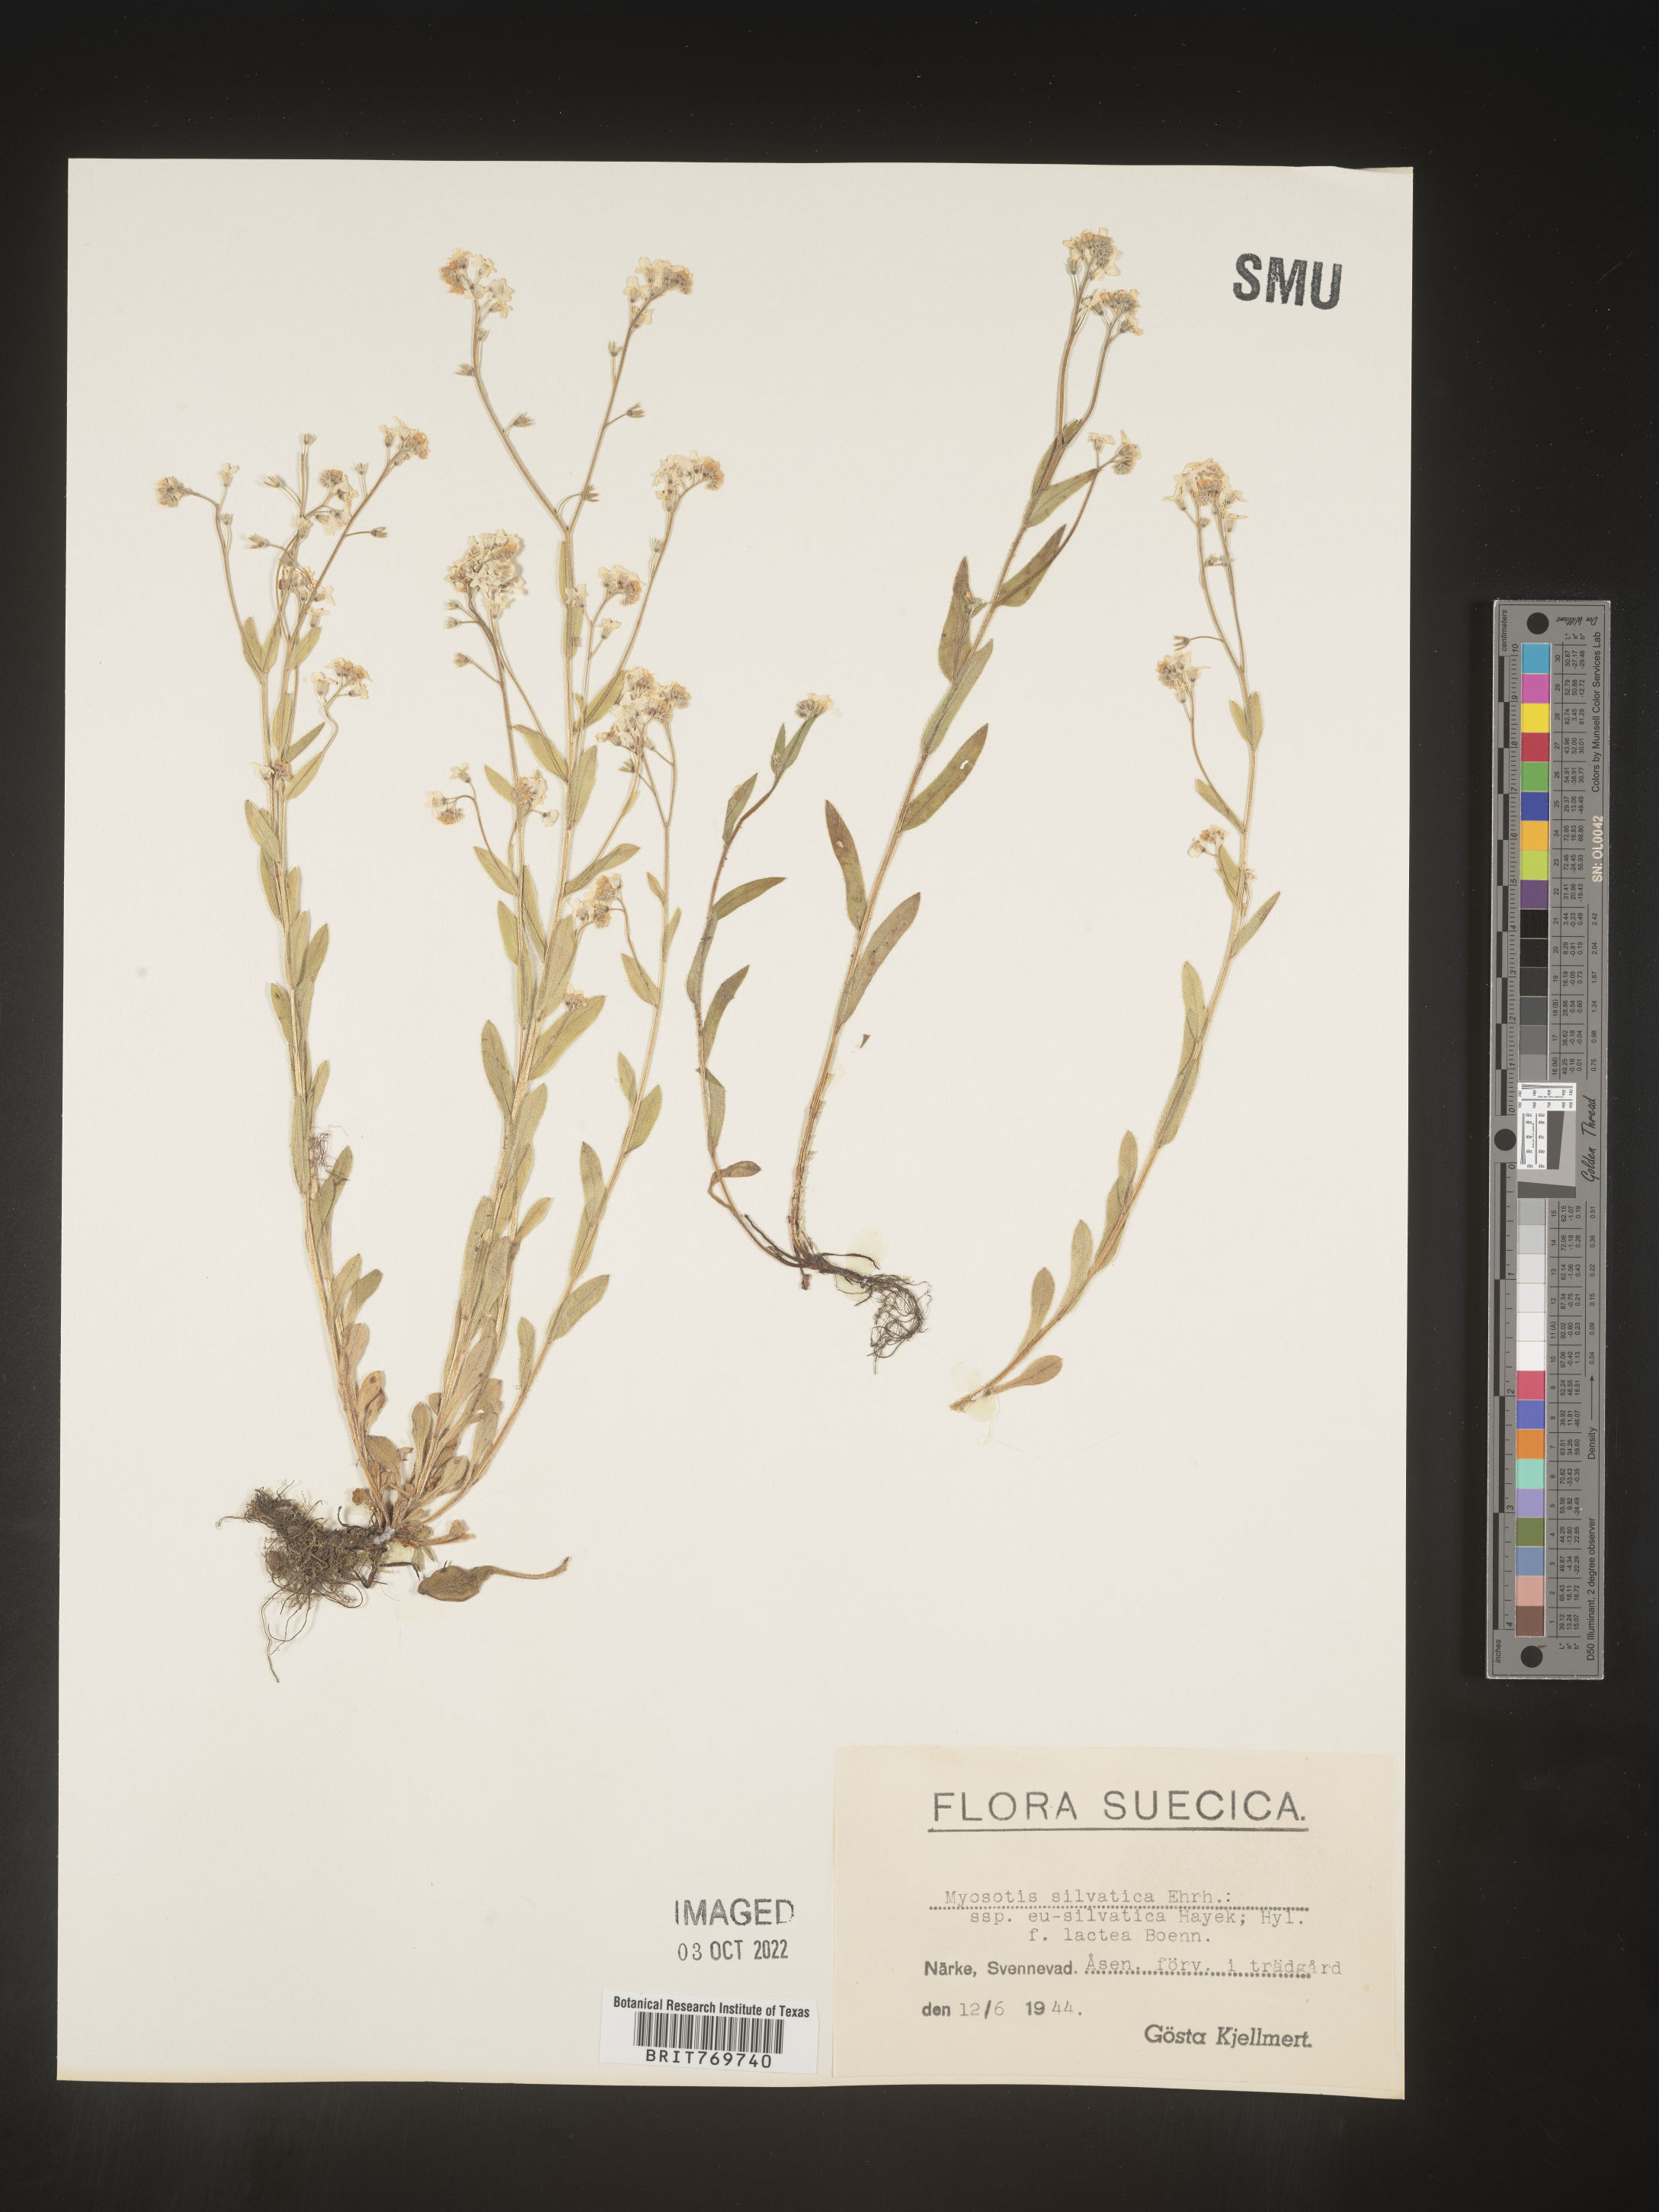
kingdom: Plantae
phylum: Tracheophyta
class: Magnoliopsida
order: Boraginales
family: Boraginaceae
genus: Myosotis
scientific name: Myosotis
